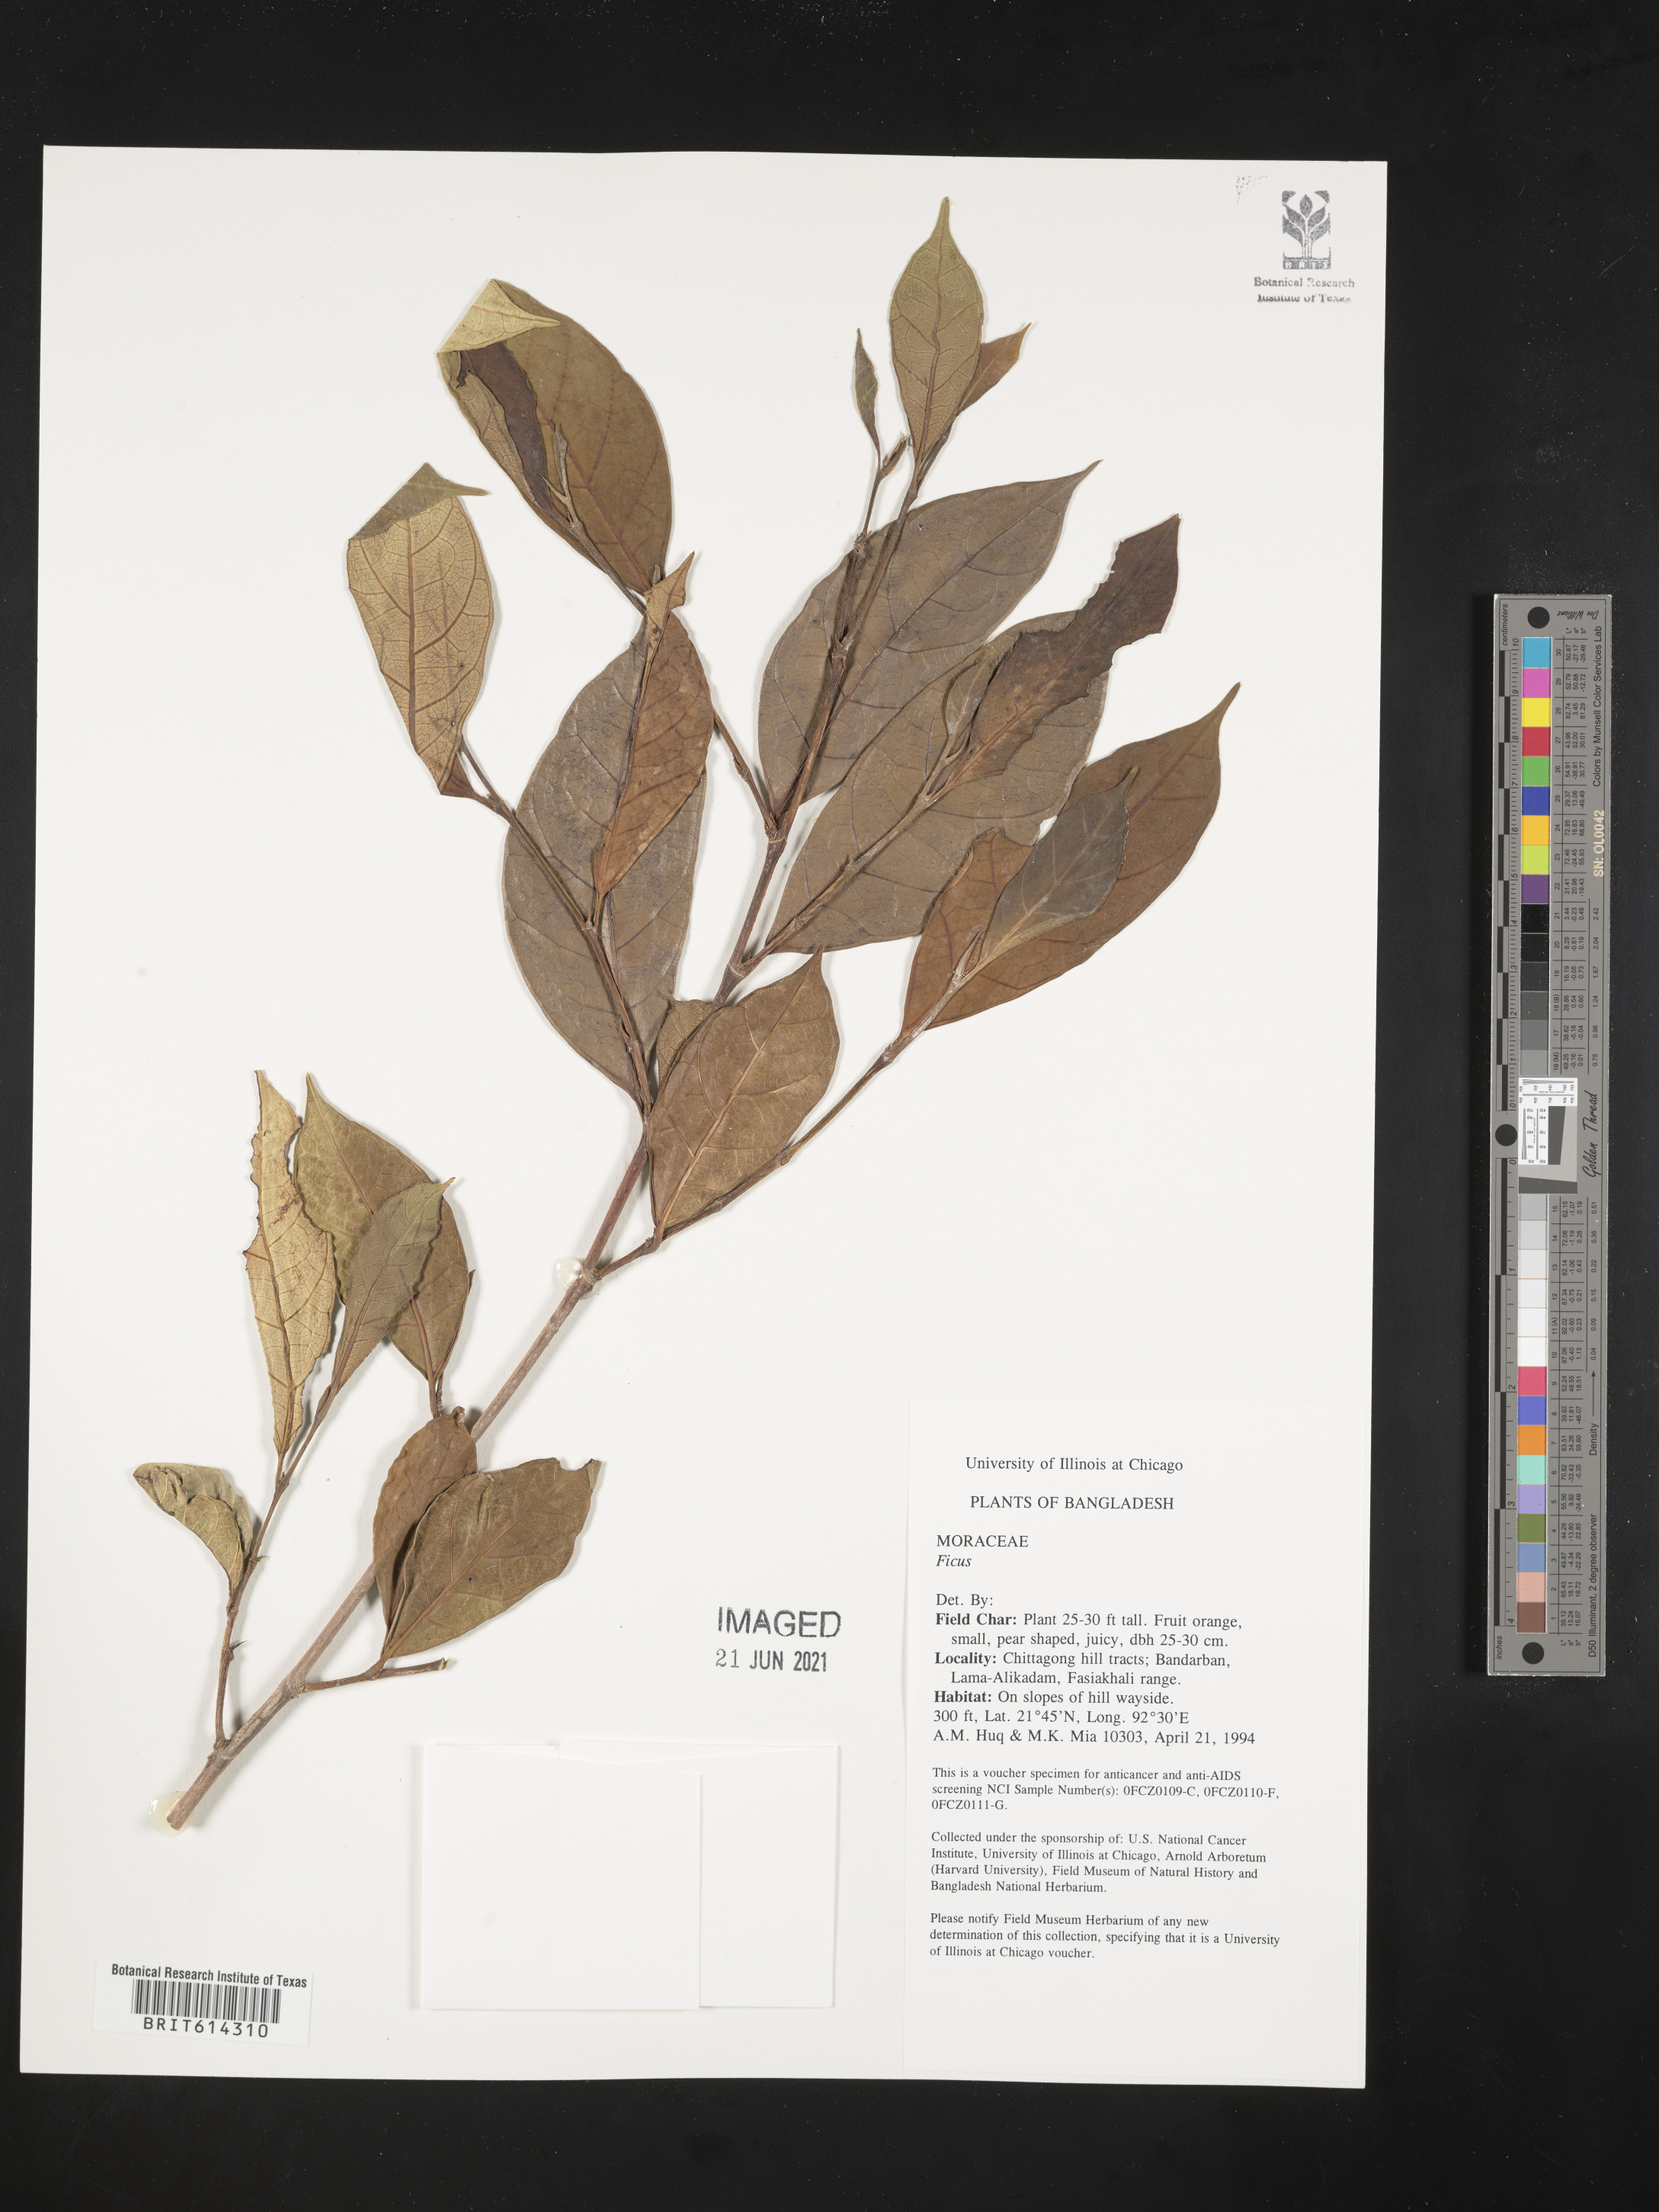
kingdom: Plantae
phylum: Tracheophyta
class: Magnoliopsida
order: Rosales
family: Moraceae
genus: Ficus
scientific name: Ficus
